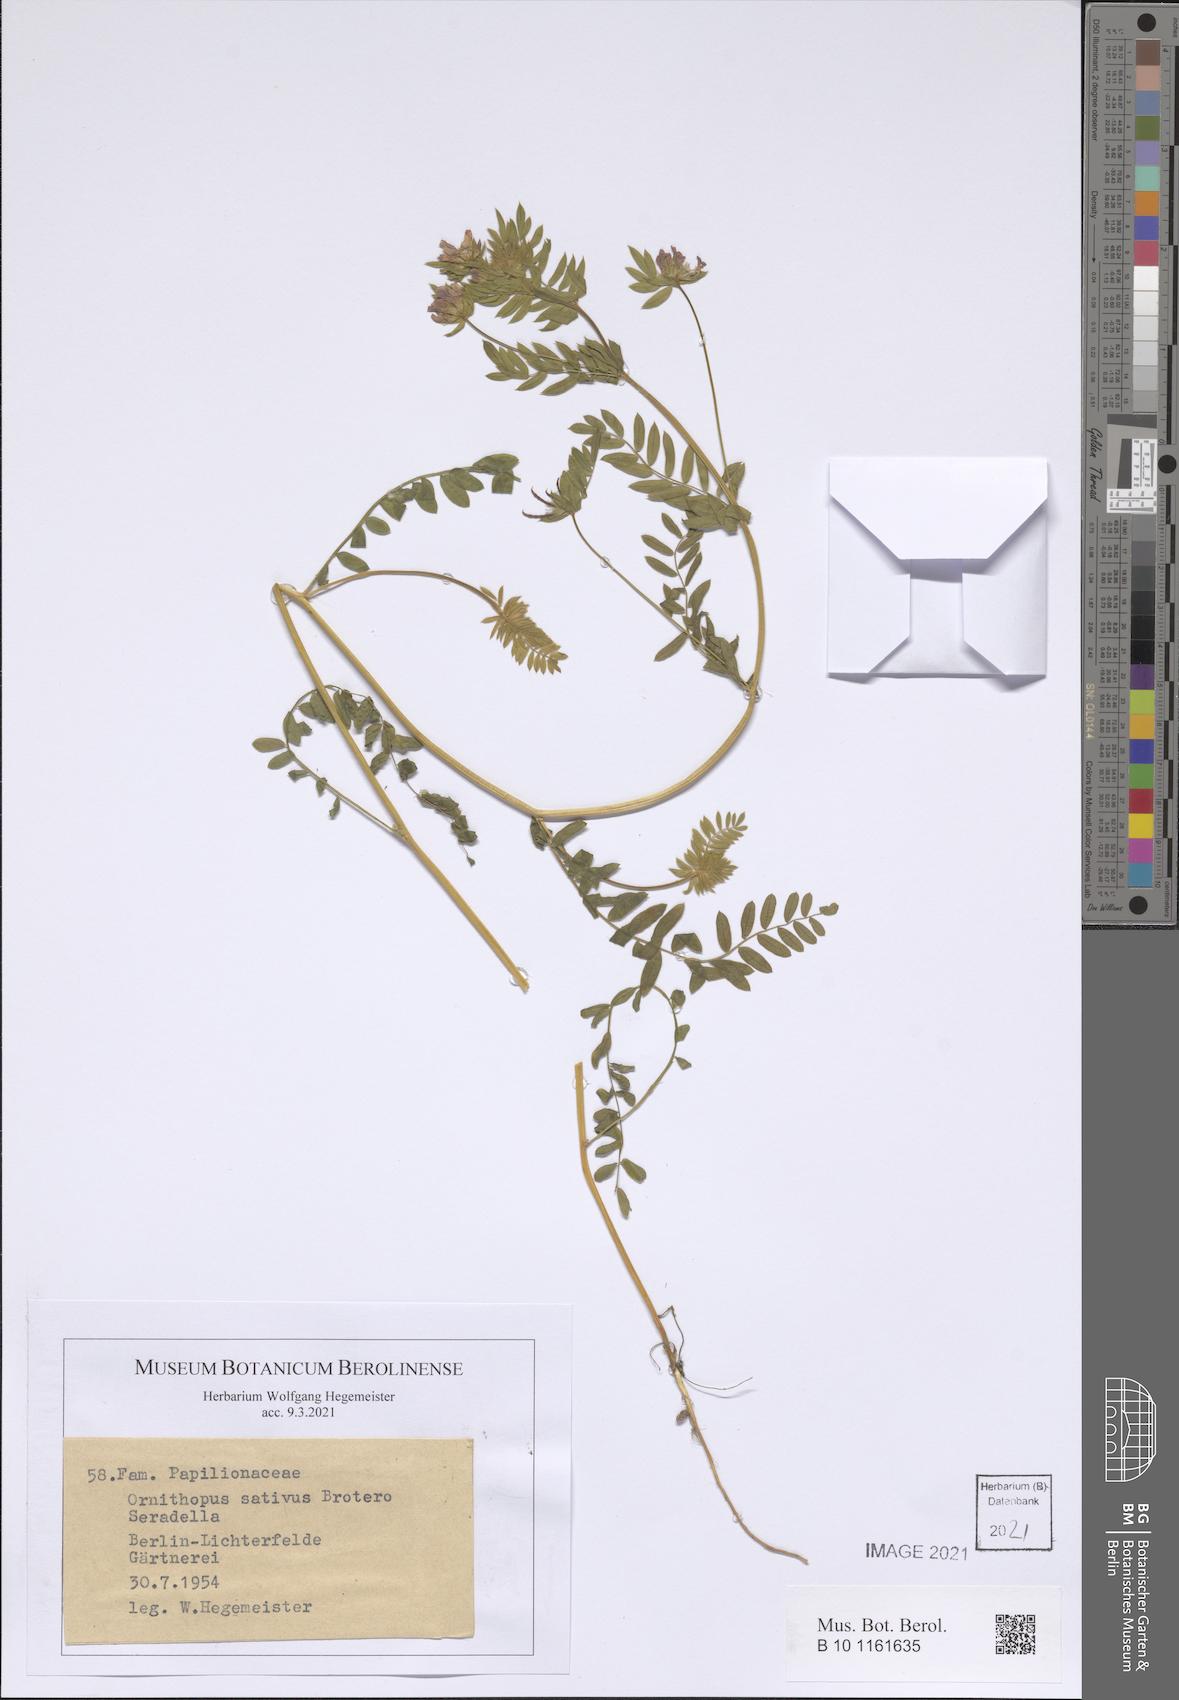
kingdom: Plantae
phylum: Tracheophyta
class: Magnoliopsida
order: Fabales
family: Fabaceae
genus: Ornithopus
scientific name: Ornithopus sativus
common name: Serradella
